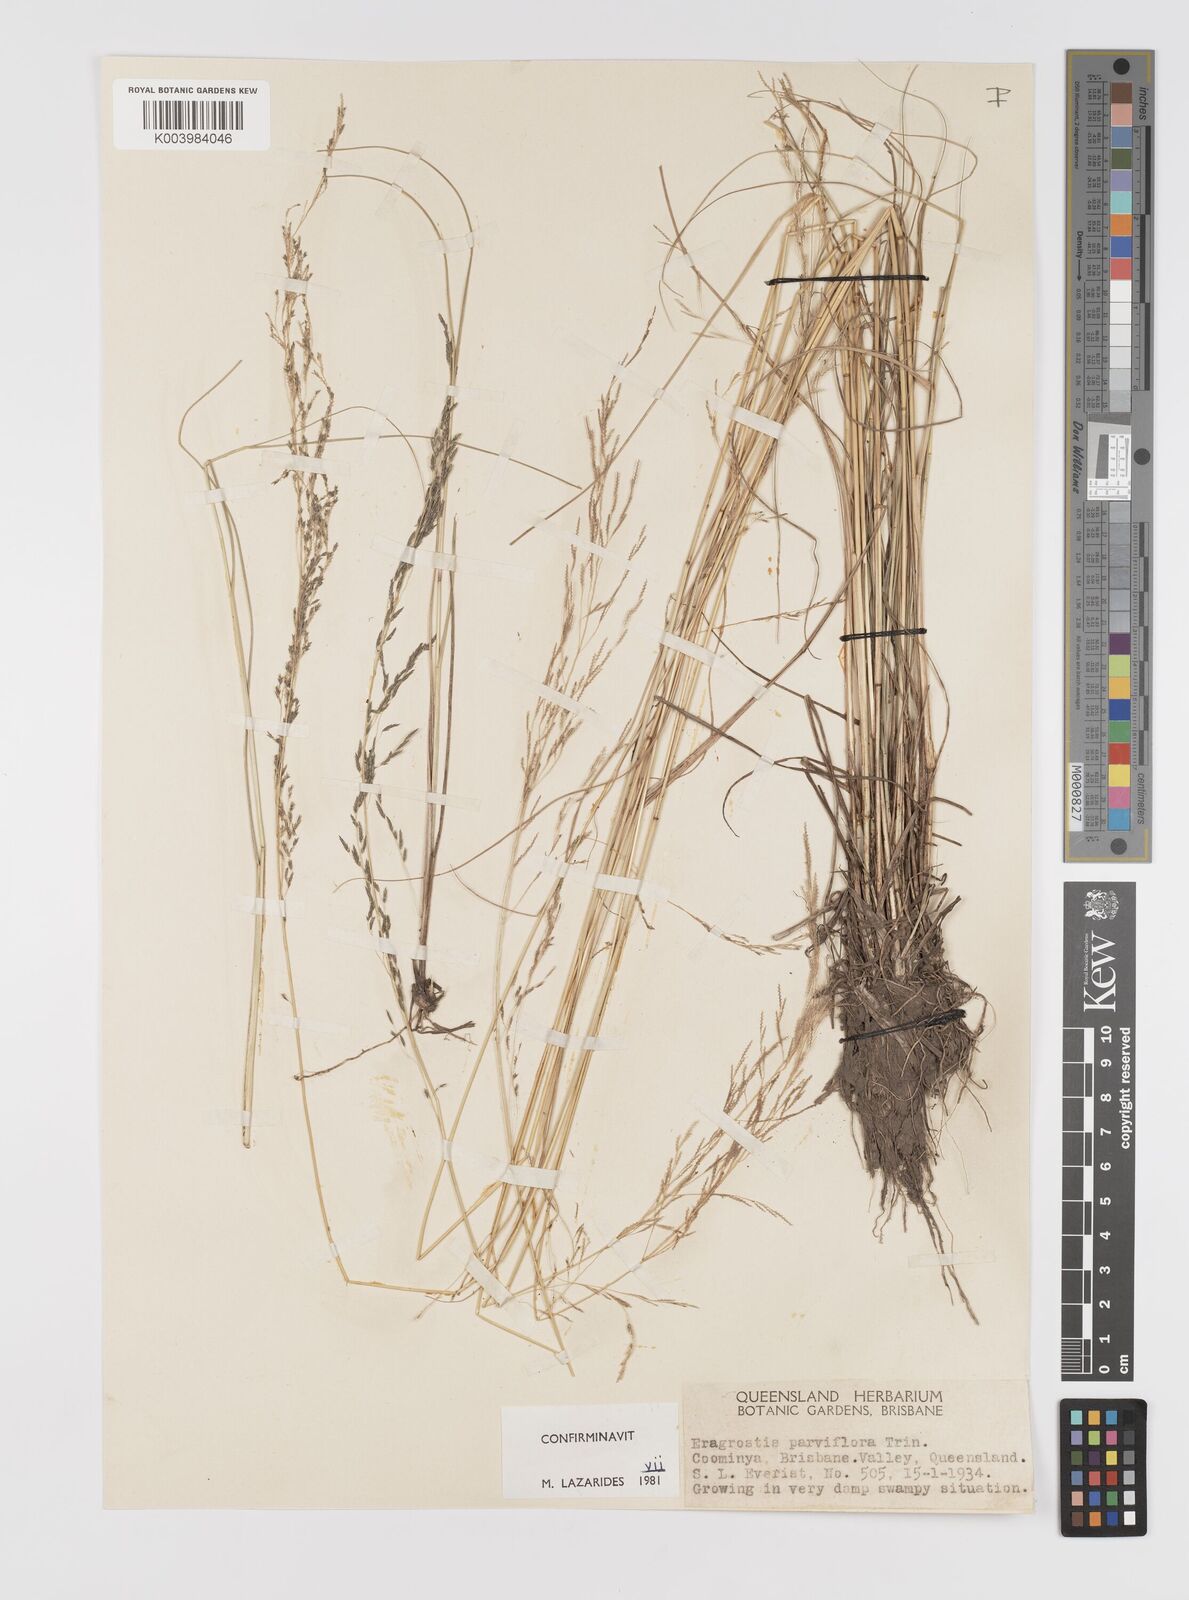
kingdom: Plantae
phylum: Tracheophyta
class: Liliopsida
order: Poales
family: Poaceae
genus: Eragrostis
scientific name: Eragrostis parviflora
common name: Weeping love-grass
